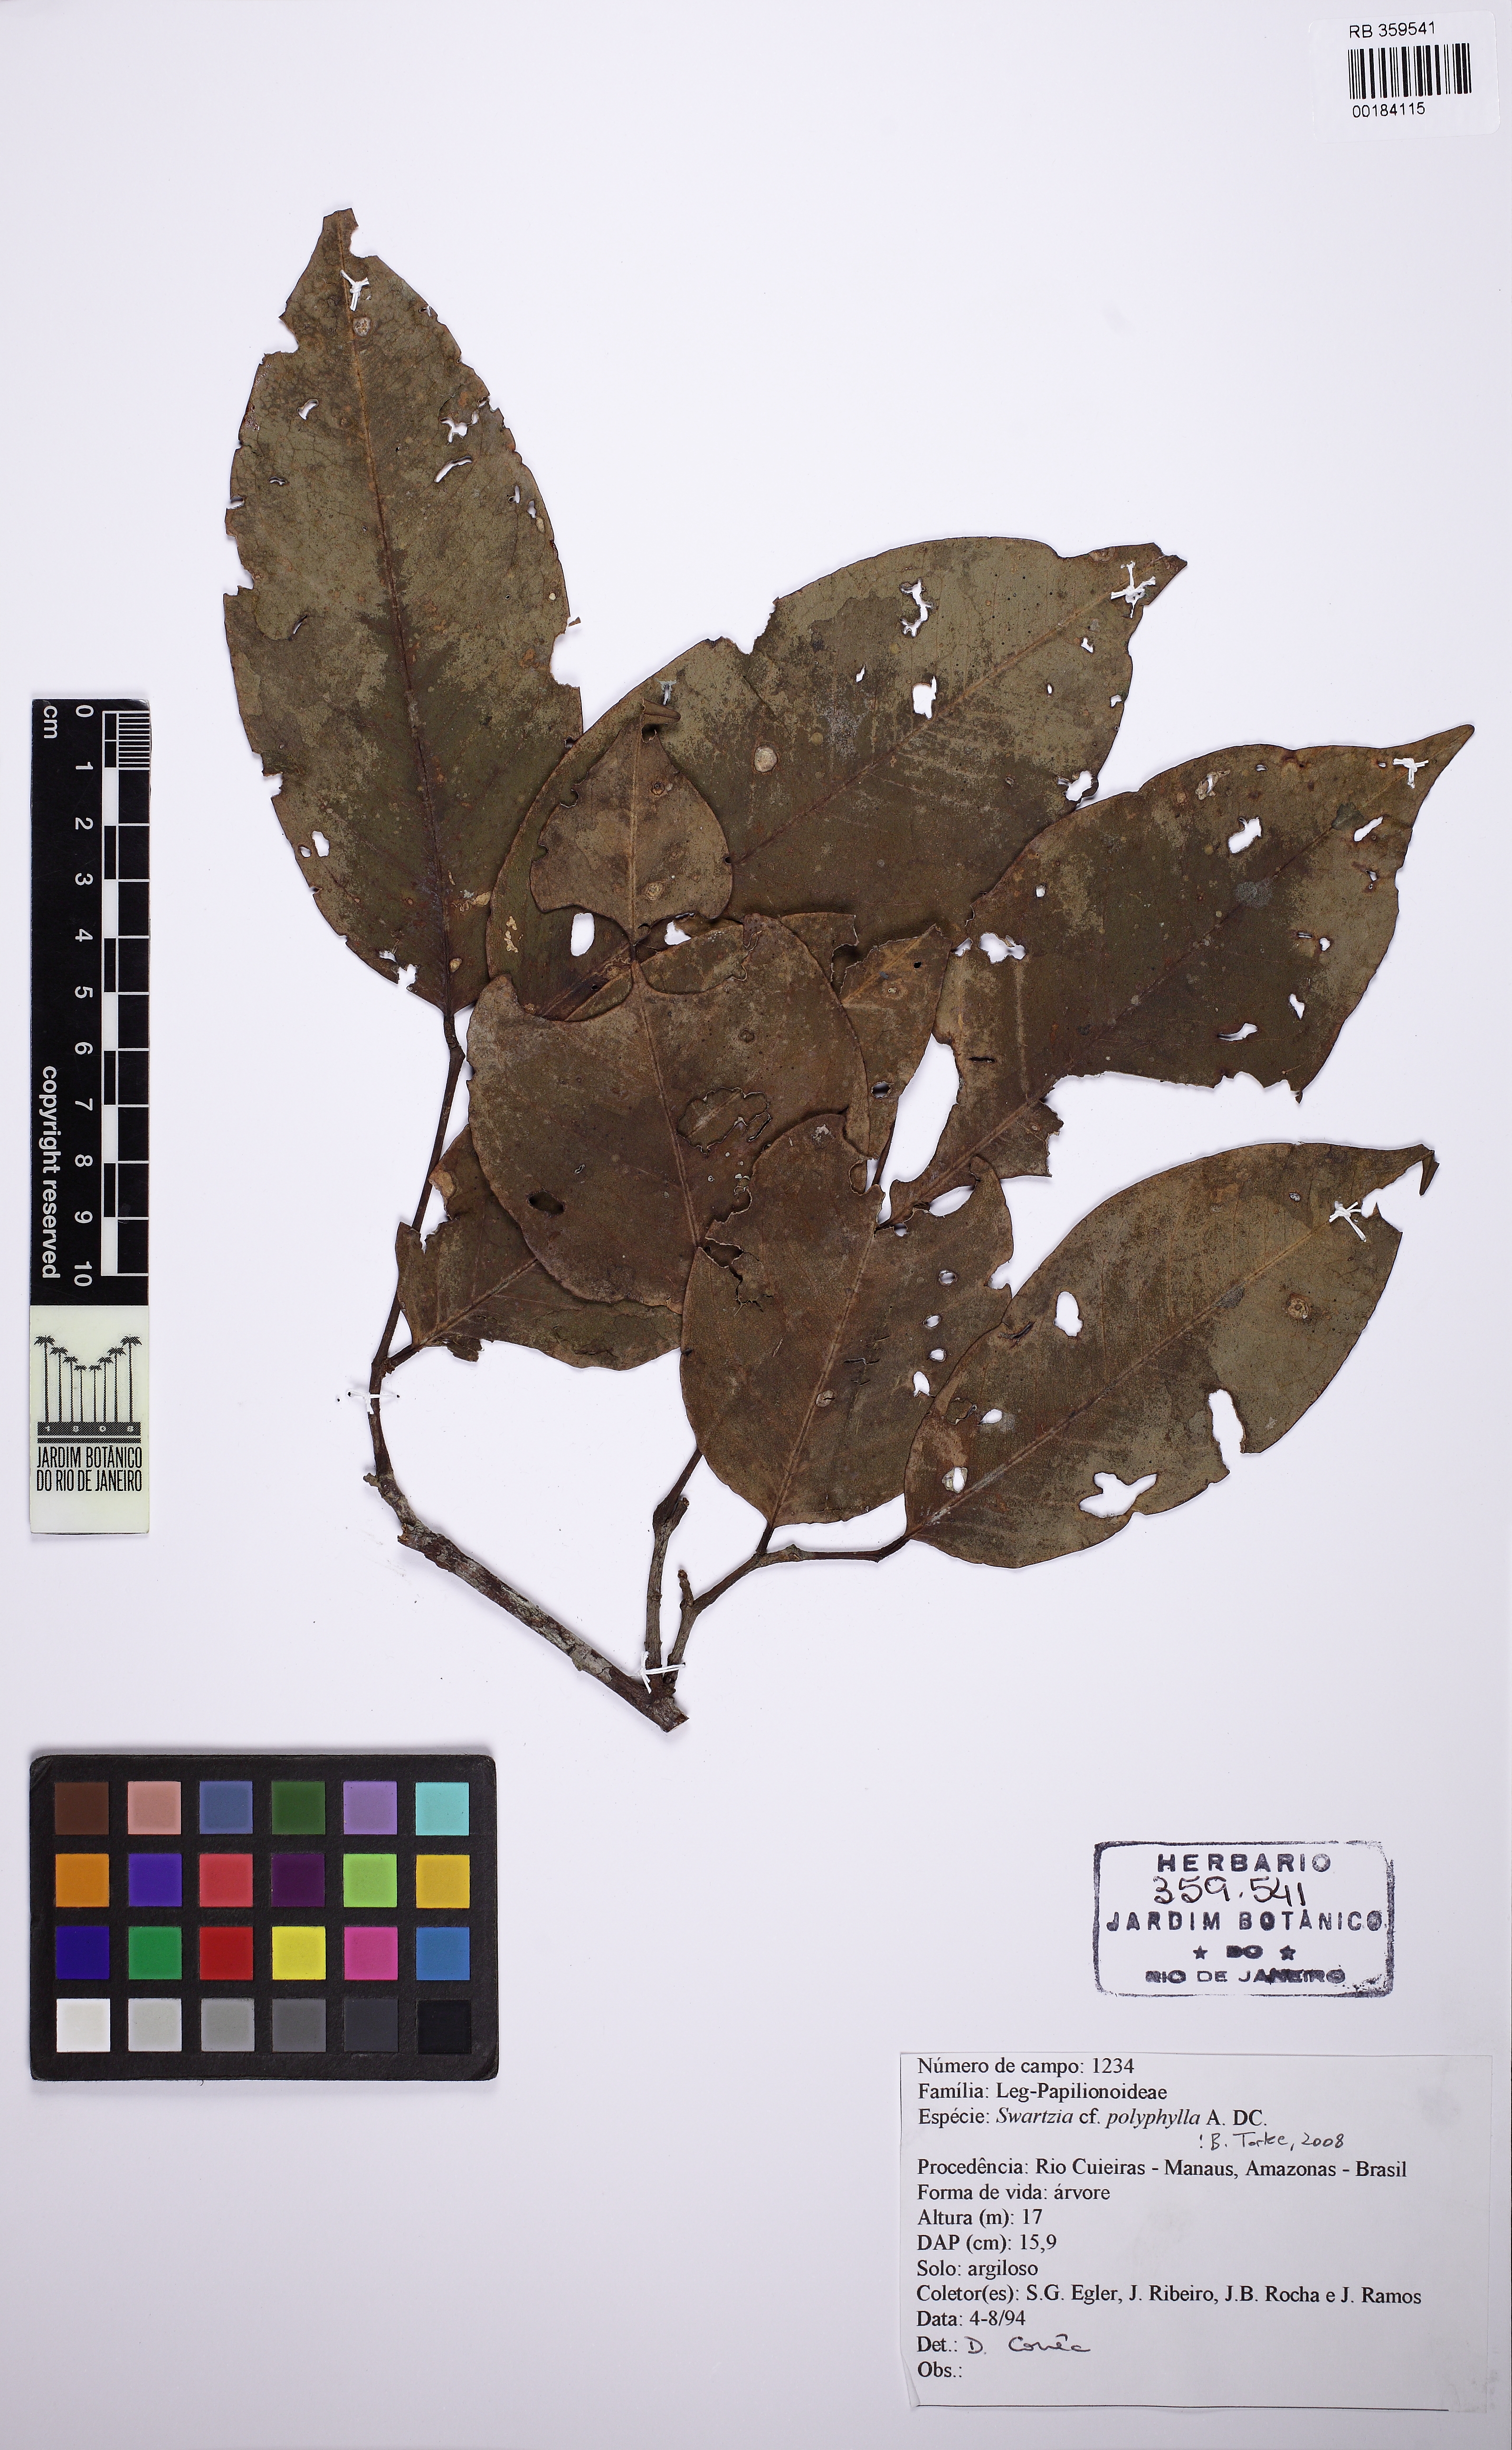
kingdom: Plantae
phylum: Tracheophyta
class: Magnoliopsida
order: Fabales
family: Fabaceae
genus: Swartzia
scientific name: Swartzia polyphylla
